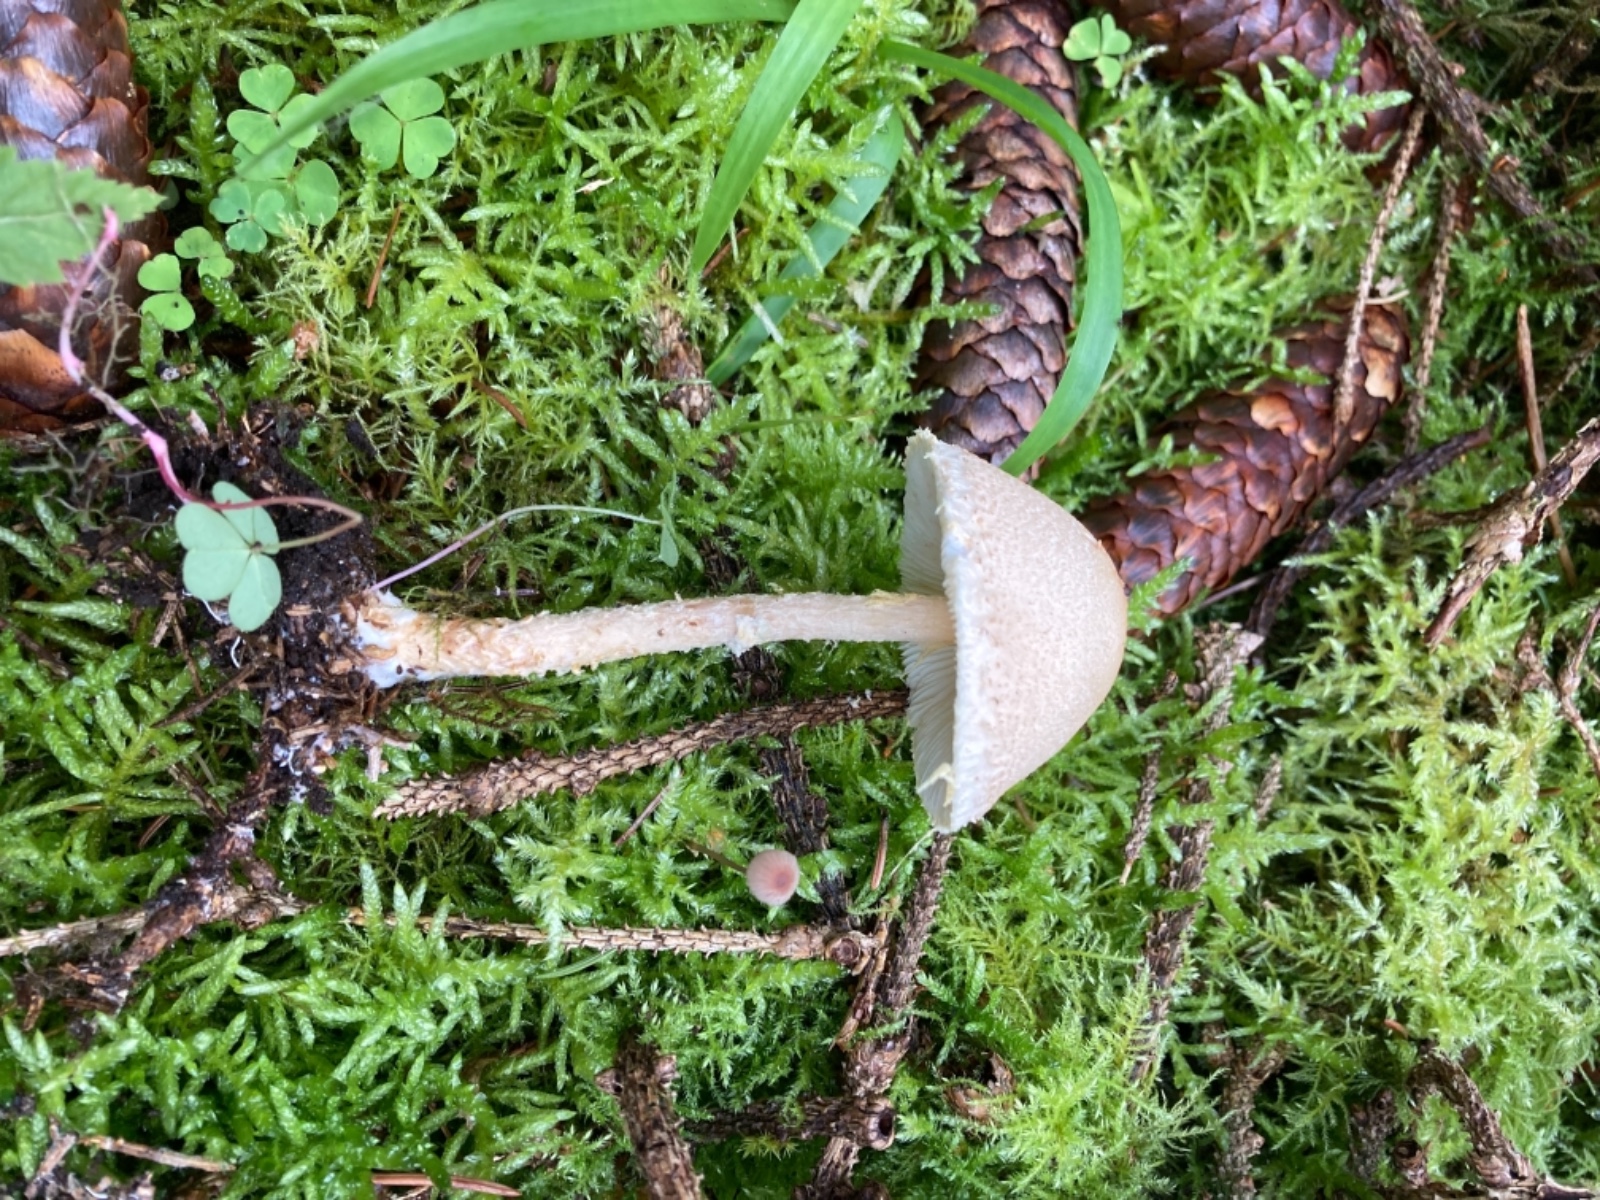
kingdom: Fungi
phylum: Basidiomycota
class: Agaricomycetes
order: Agaricales
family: Agaricaceae
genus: Lepiota
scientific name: Lepiota magnispora
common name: gulfnugget parasolhat
